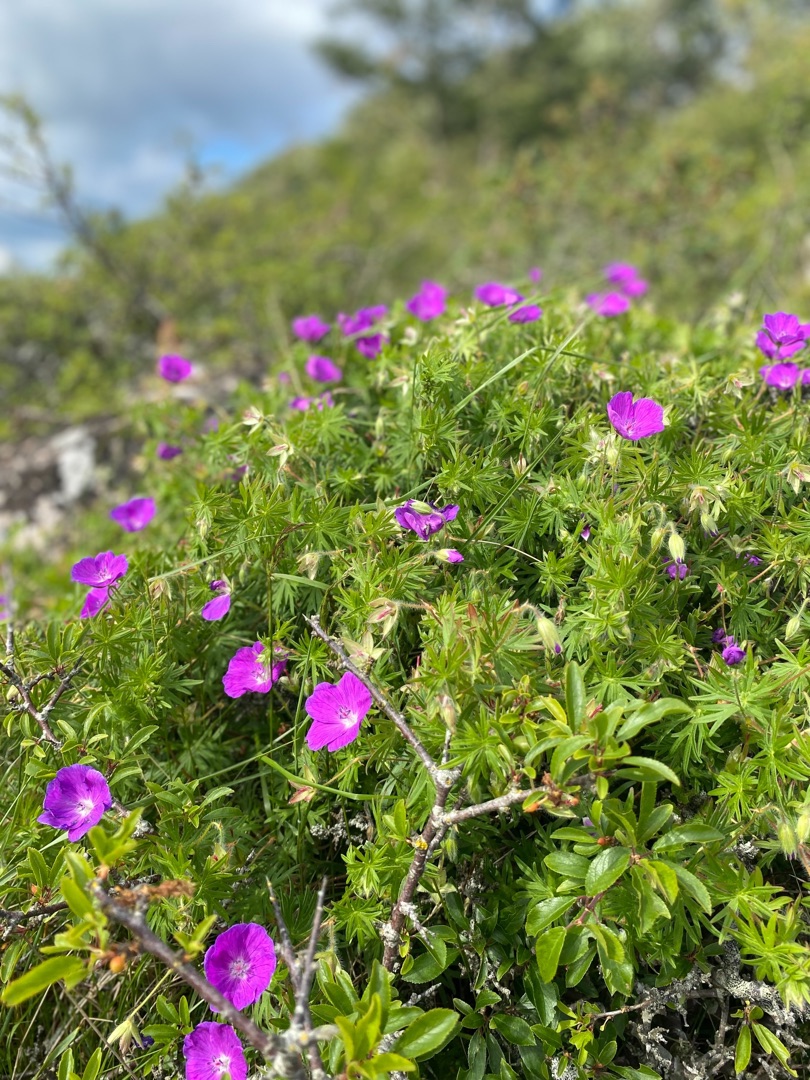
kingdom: Plantae
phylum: Tracheophyta
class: Magnoliopsida
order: Geraniales
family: Geraniaceae
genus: Geranium
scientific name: Geranium sanguineum
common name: Blodrød storkenæb
